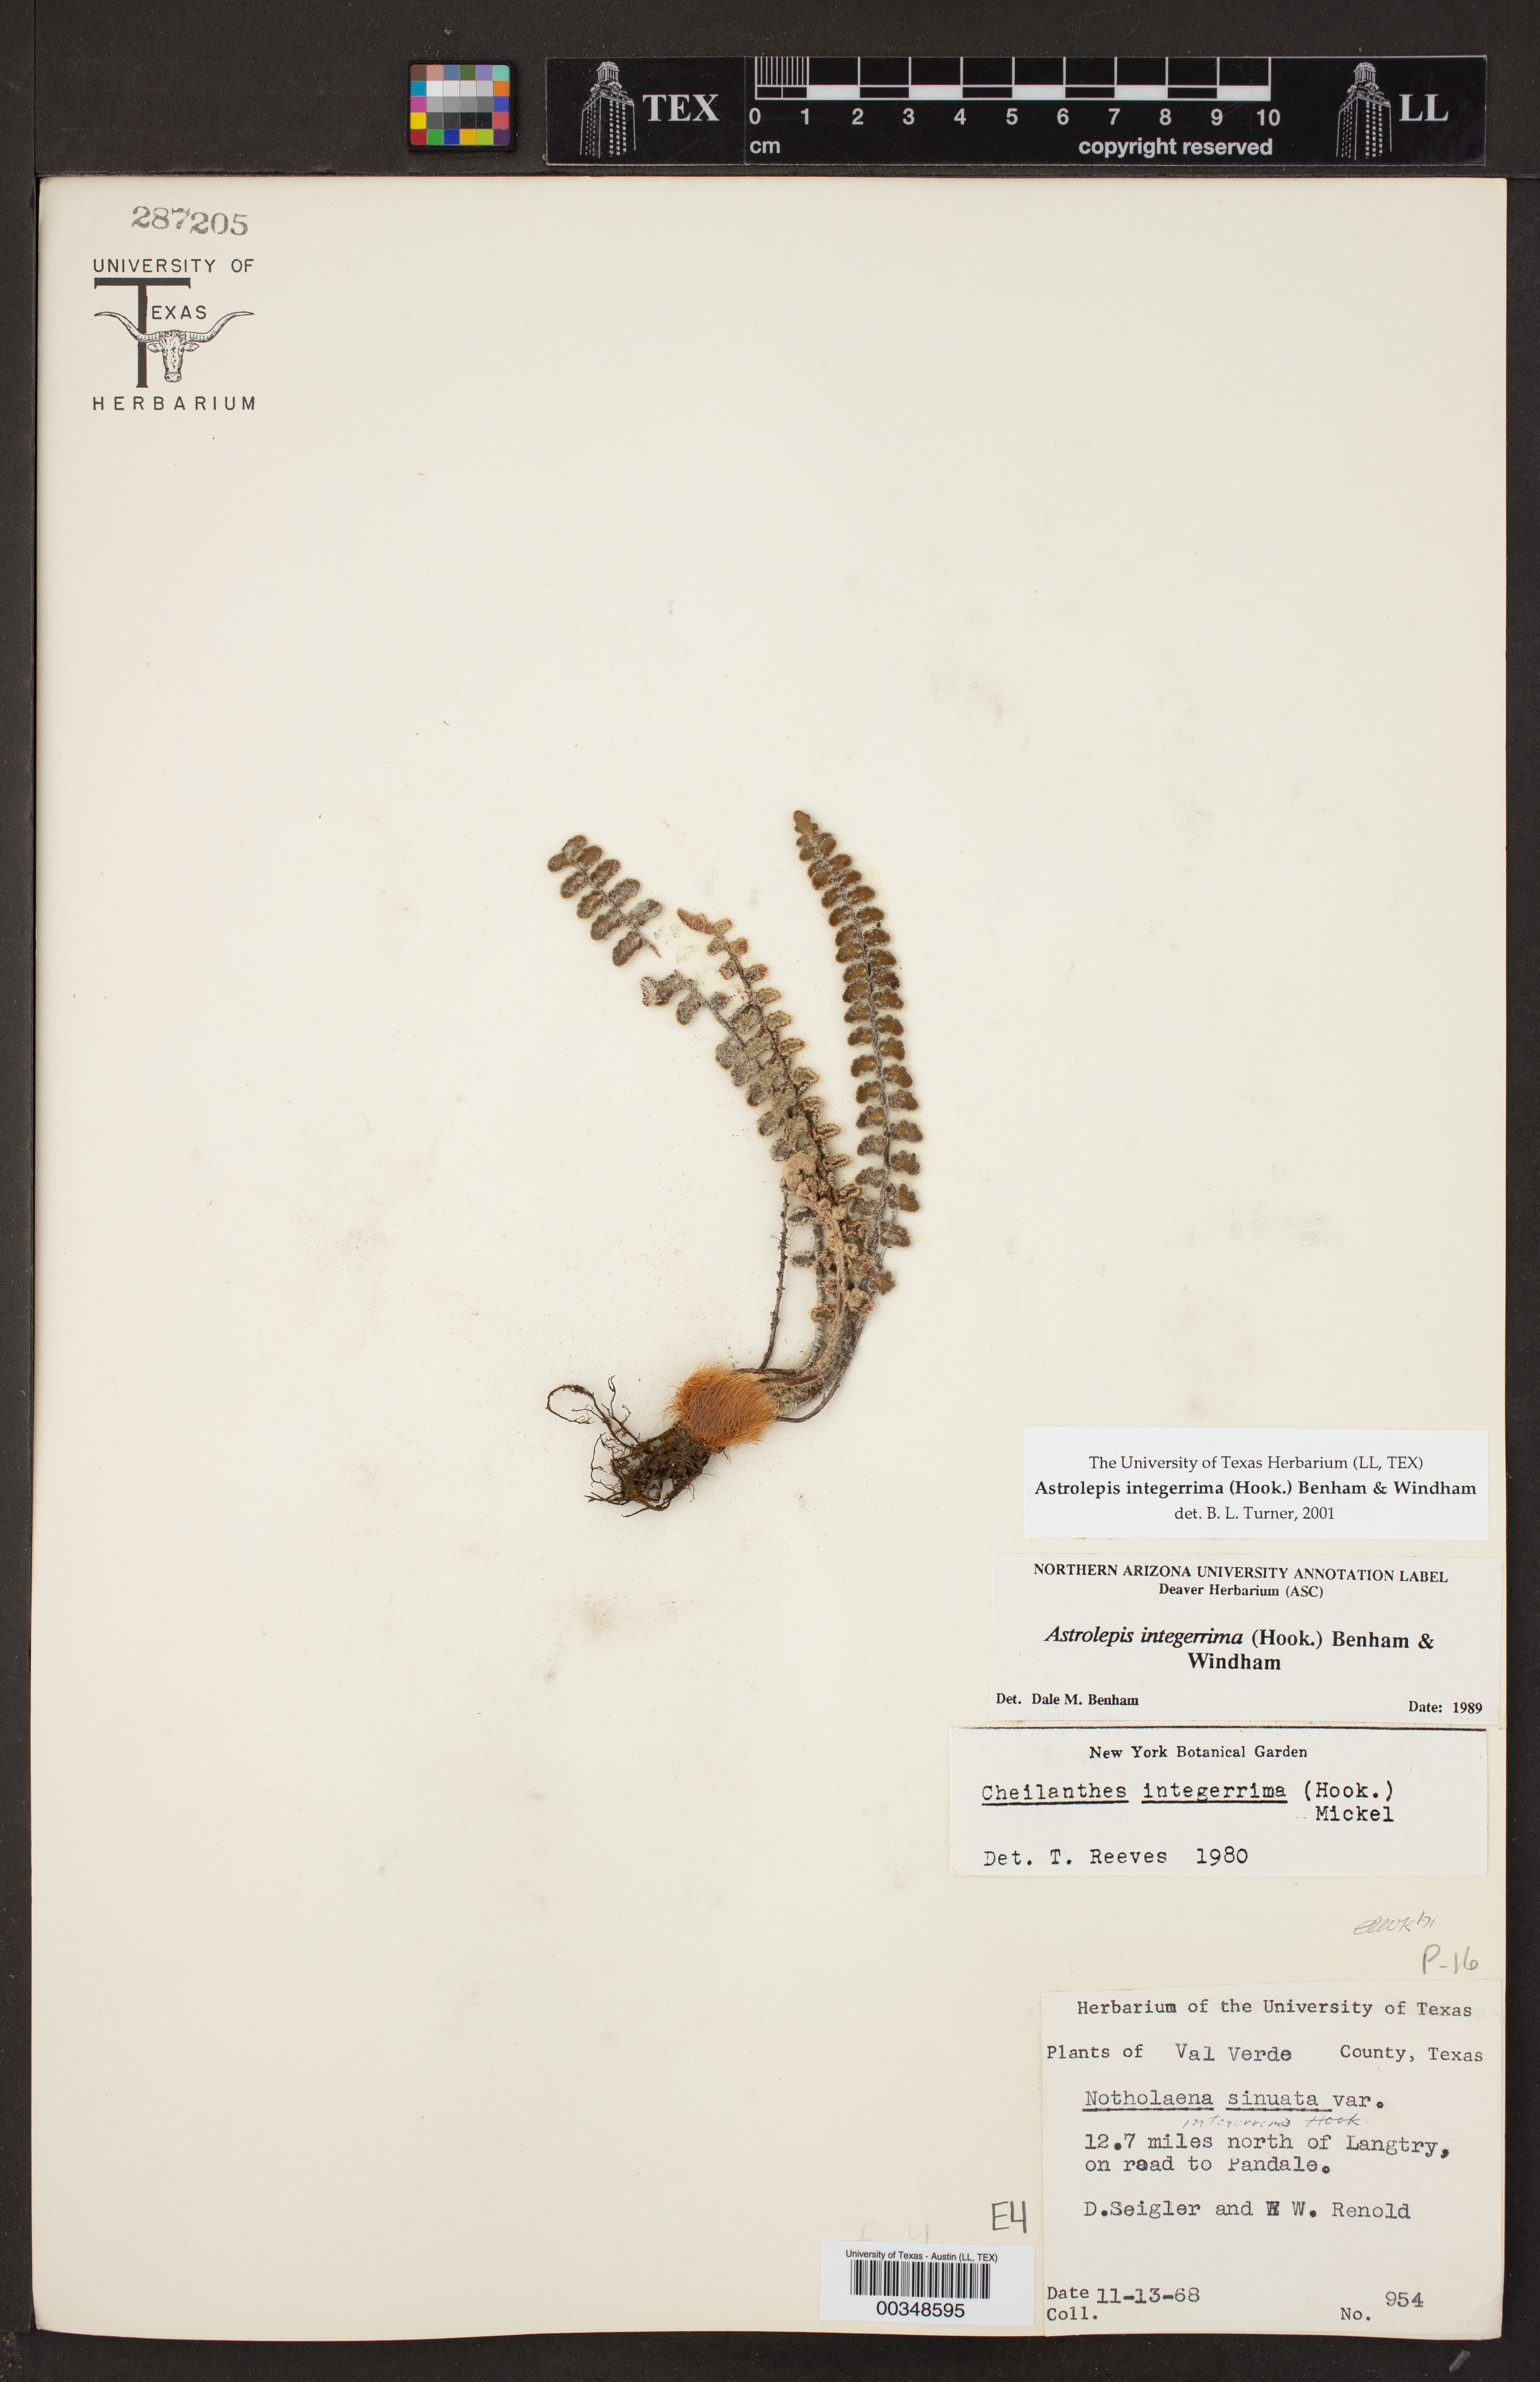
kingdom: Plantae
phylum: Tracheophyta
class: Polypodiopsida
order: Polypodiales
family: Pteridaceae
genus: Astrolepis
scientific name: Astrolepis integerrima
